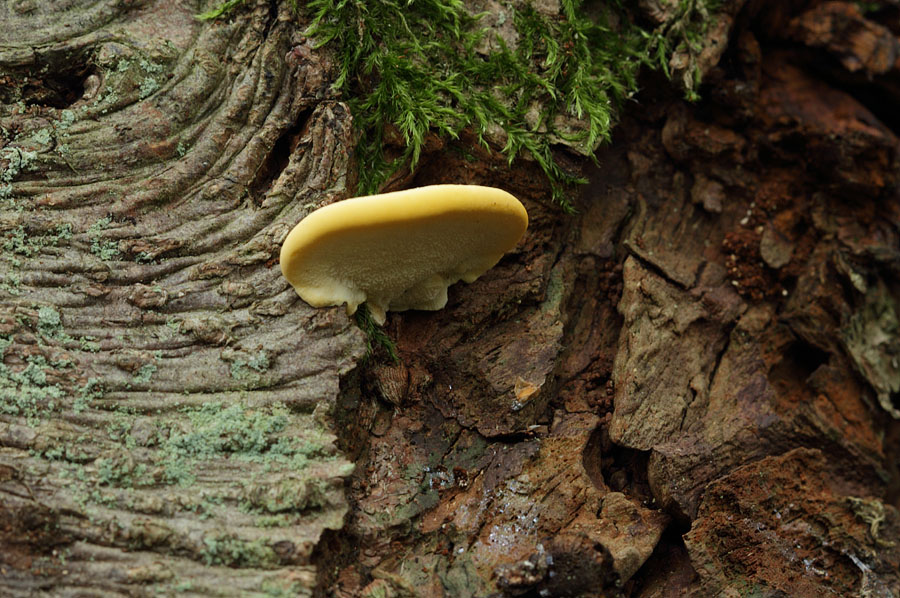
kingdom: Fungi
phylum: Basidiomycota
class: Agaricomycetes
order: Polyporales
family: Steccherinaceae
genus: Antrodiella
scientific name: Antrodiella serpula
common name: gulrandet elastikporesvamp
